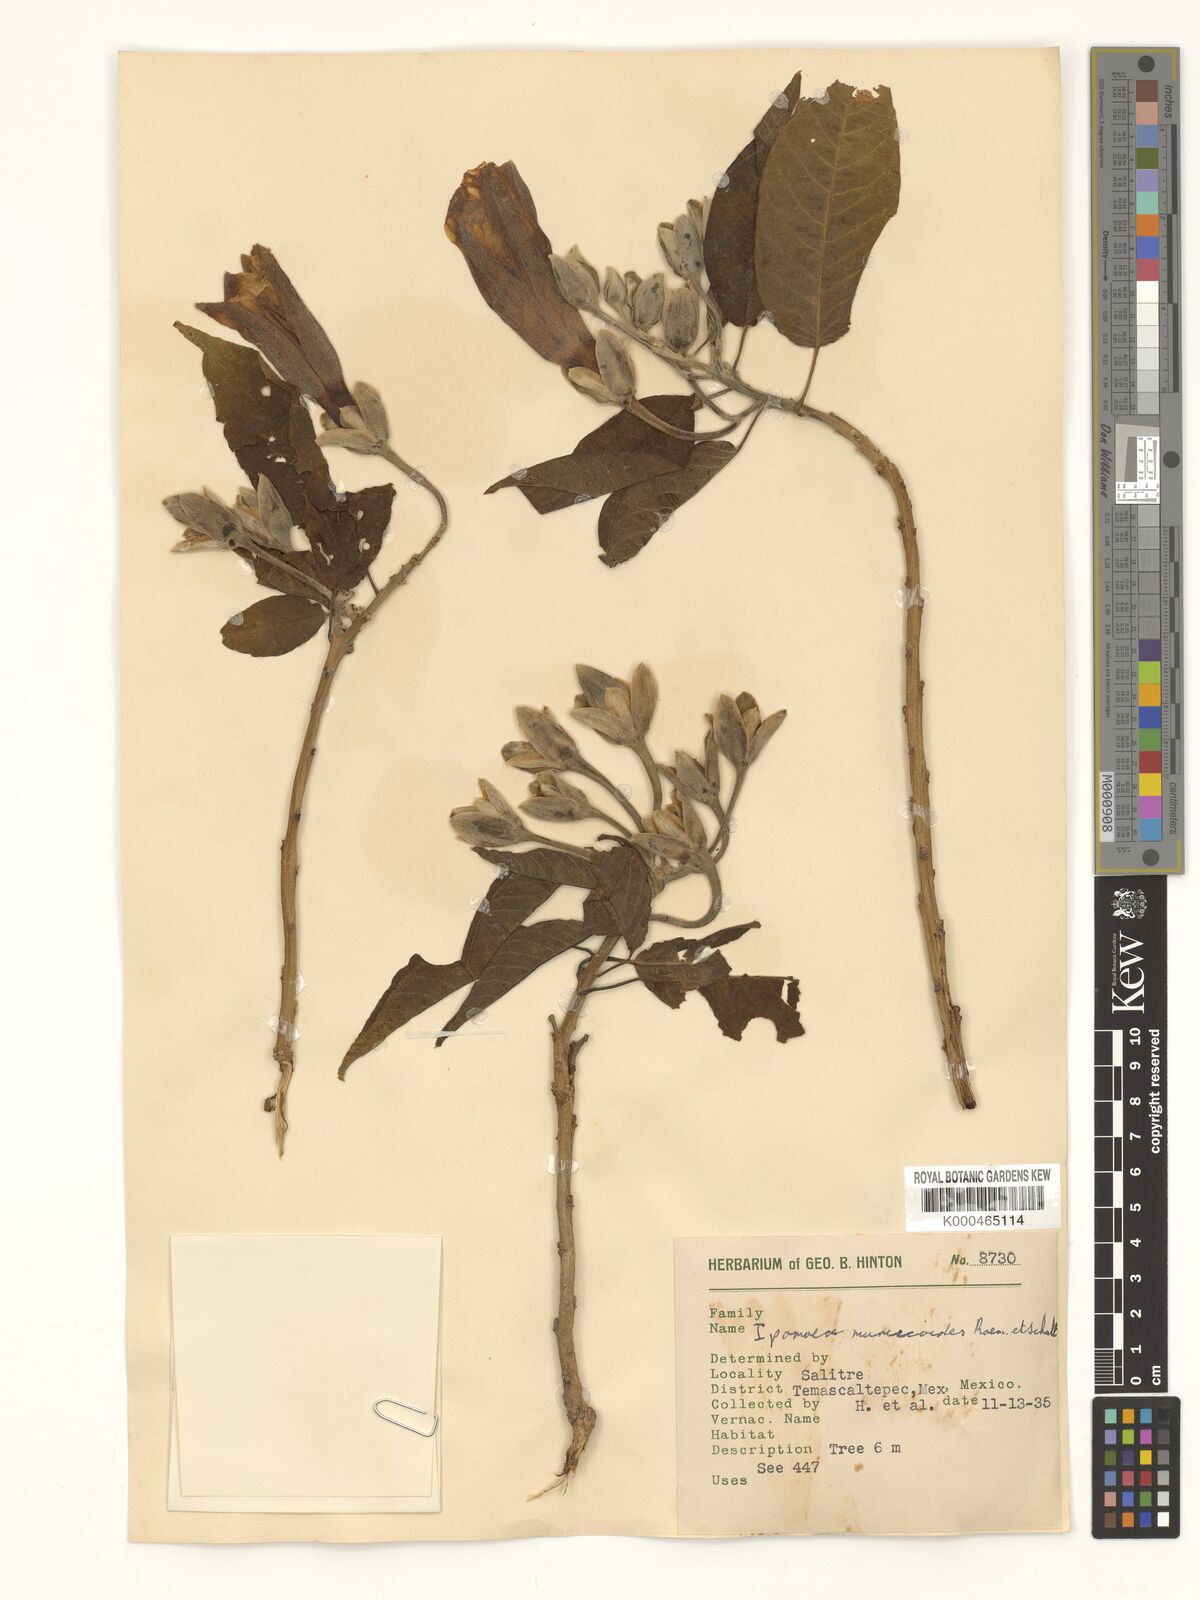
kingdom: Plantae
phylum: Tracheophyta
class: Magnoliopsida
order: Solanales
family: Convolvulaceae
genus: Ipomoea
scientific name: Ipomoea murucoides
